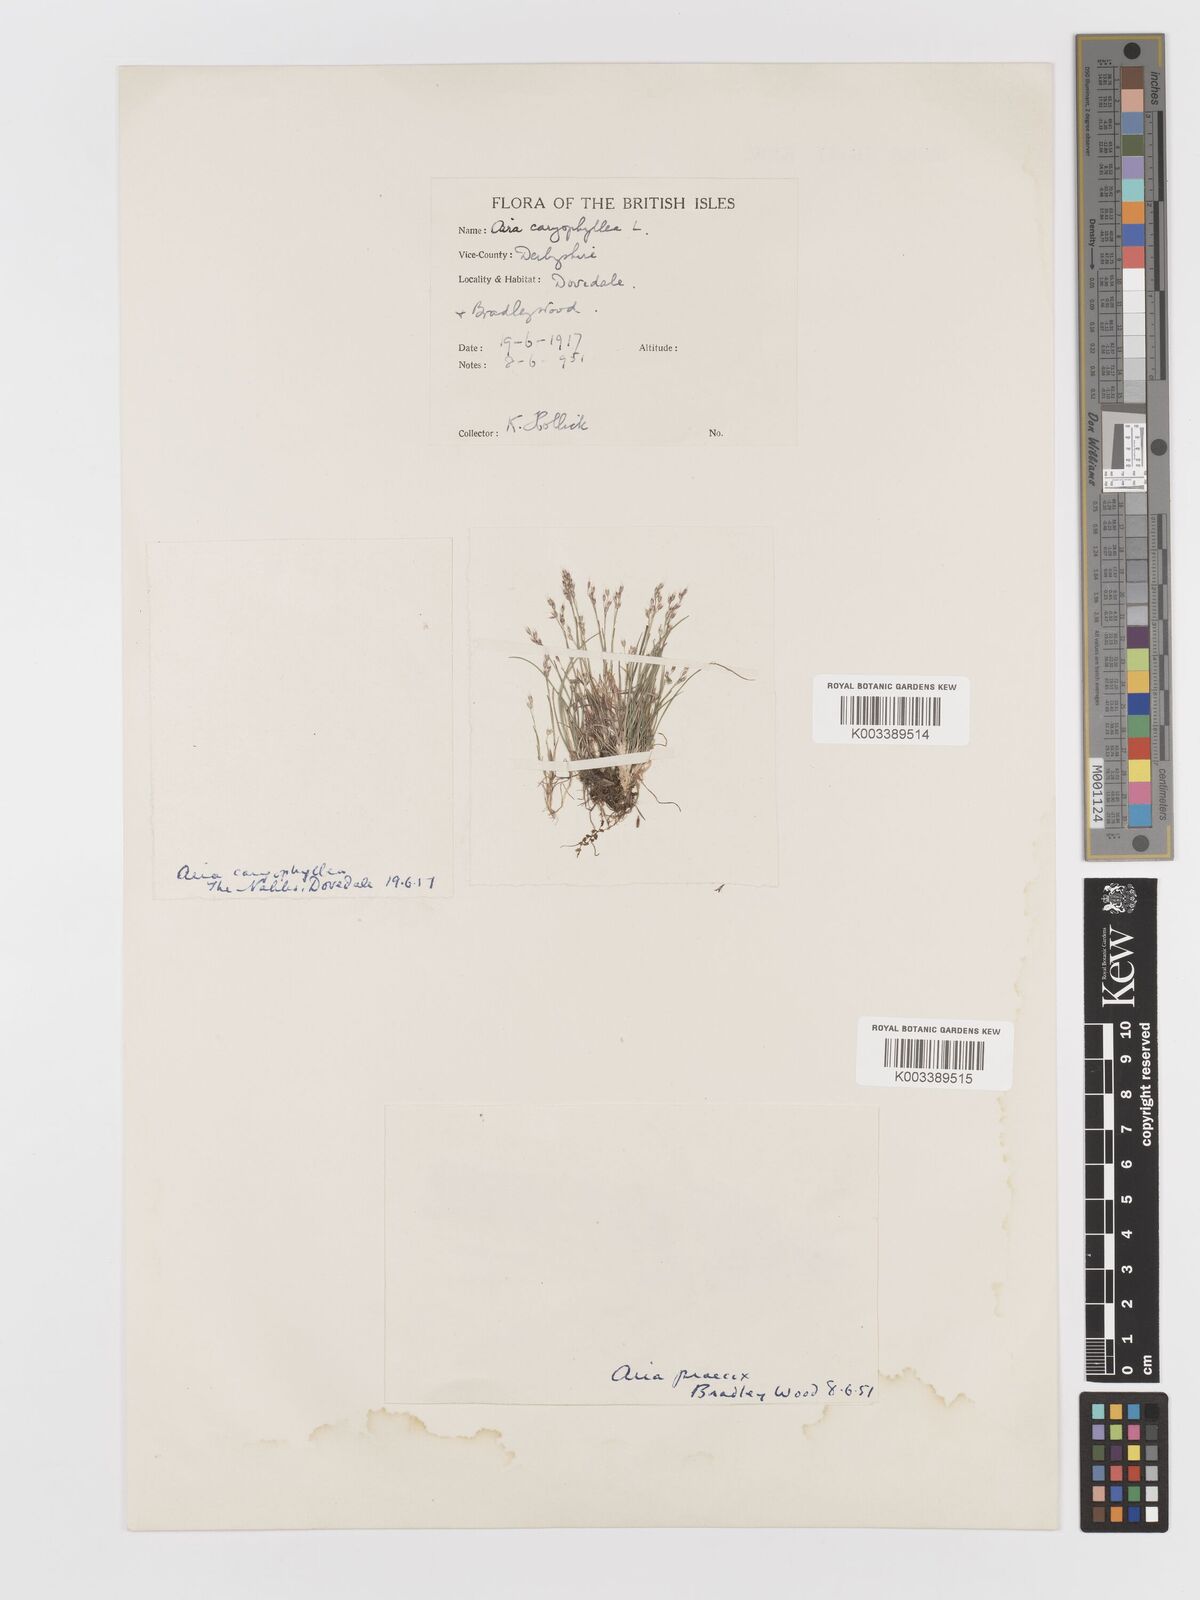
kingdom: Plantae
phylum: Tracheophyta
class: Liliopsida
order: Poales
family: Poaceae
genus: Aira
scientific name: Aira caryophyllea
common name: Silver hairgrass
